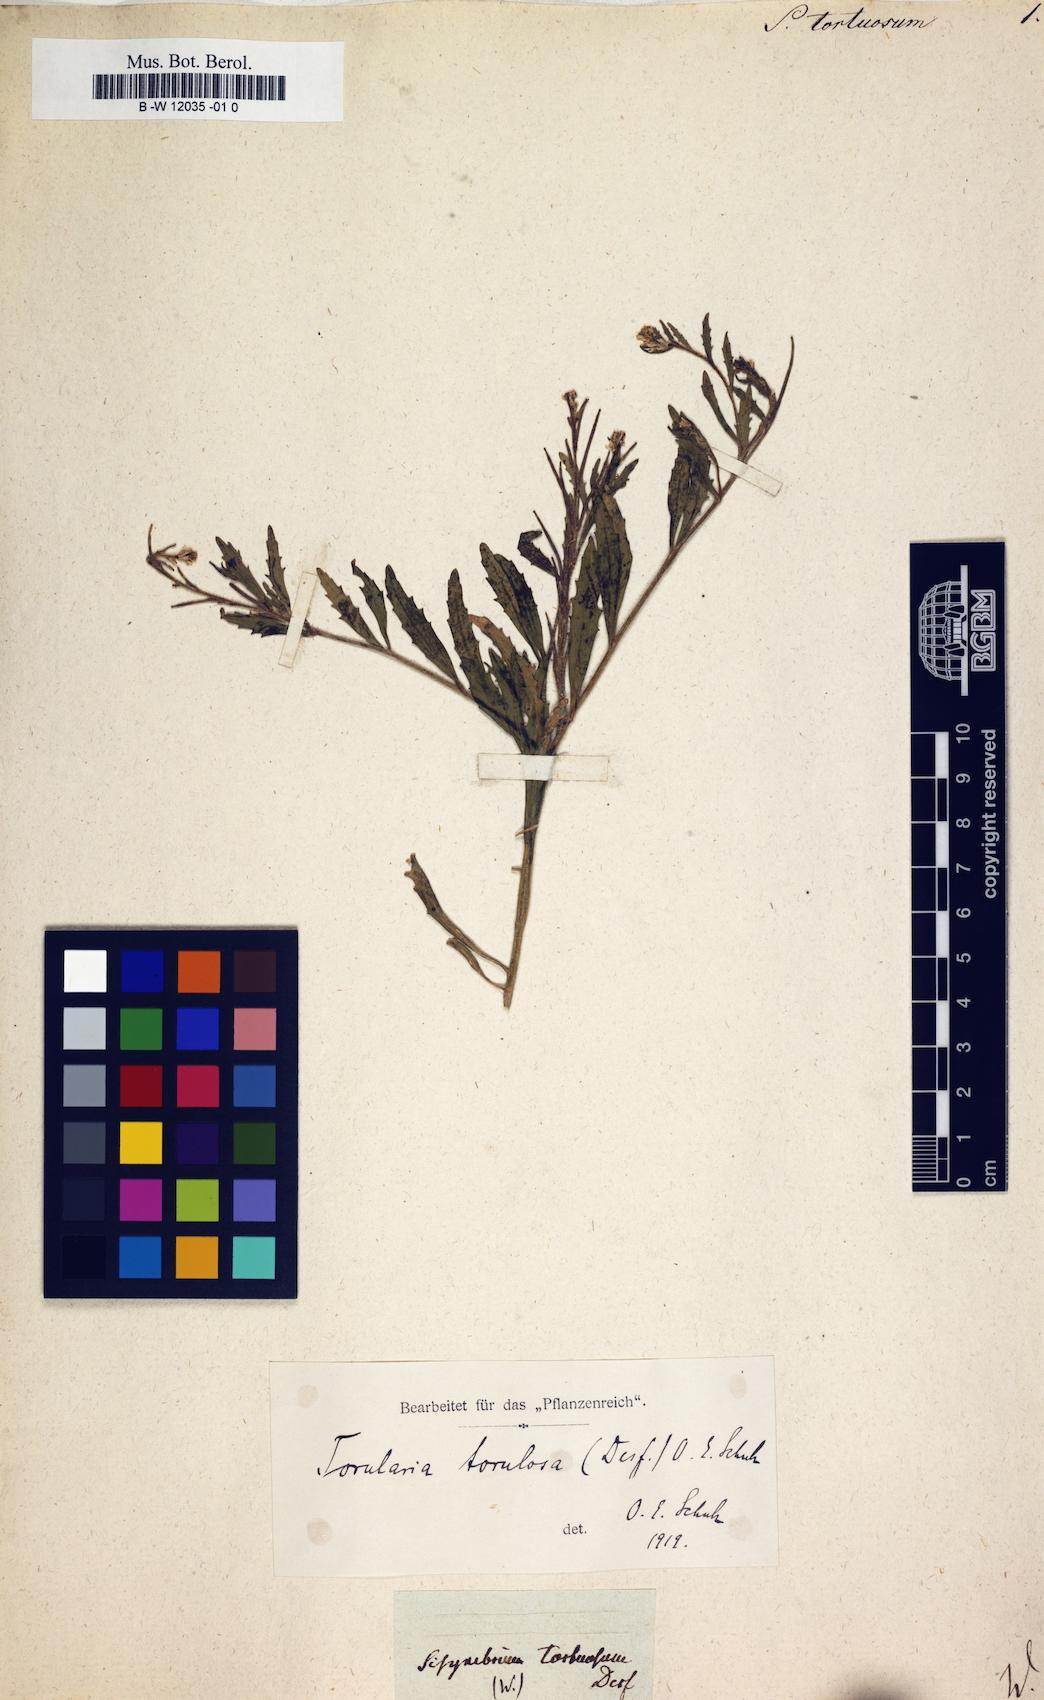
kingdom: Plantae
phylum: Tracheophyta
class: Magnoliopsida
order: Brassicales
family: Brassicaceae
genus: Neotorularia
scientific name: Neotorularia torulosa
